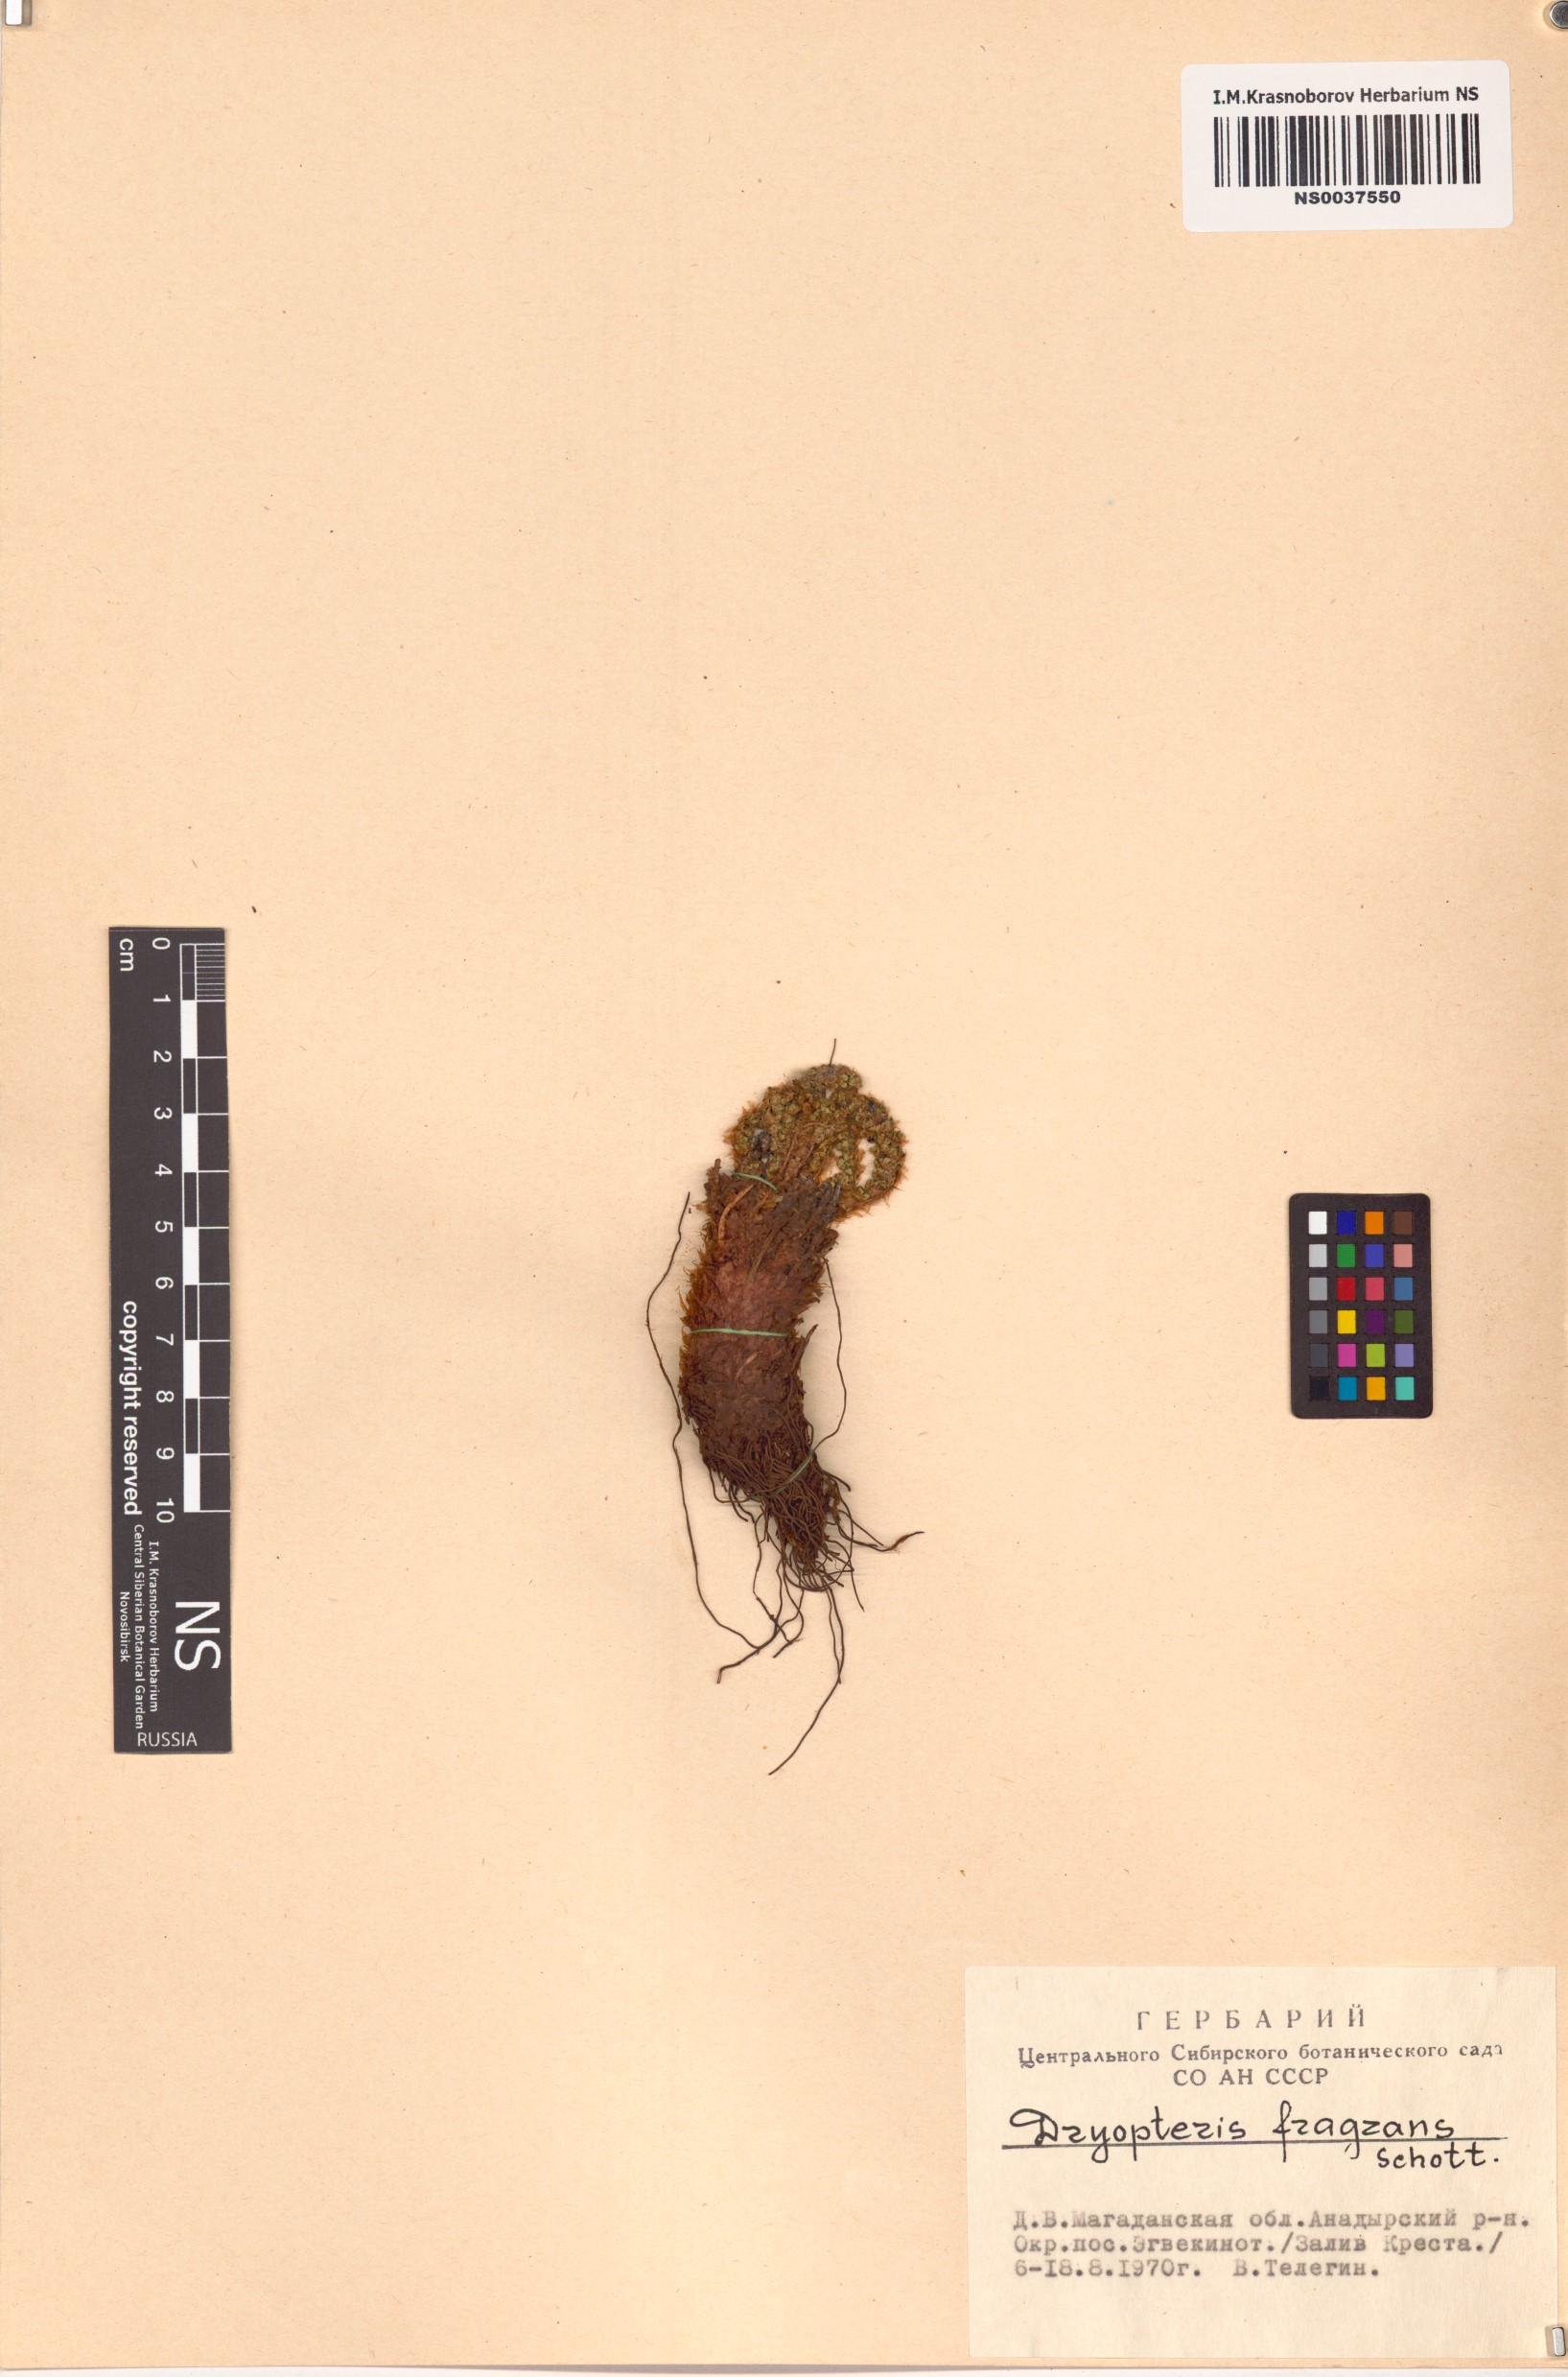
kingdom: Plantae
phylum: Tracheophyta
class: Polypodiopsida
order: Polypodiales
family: Dryopteridaceae
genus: Dryopteris
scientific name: Dryopteris fragrans
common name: Fragrant wood fern
